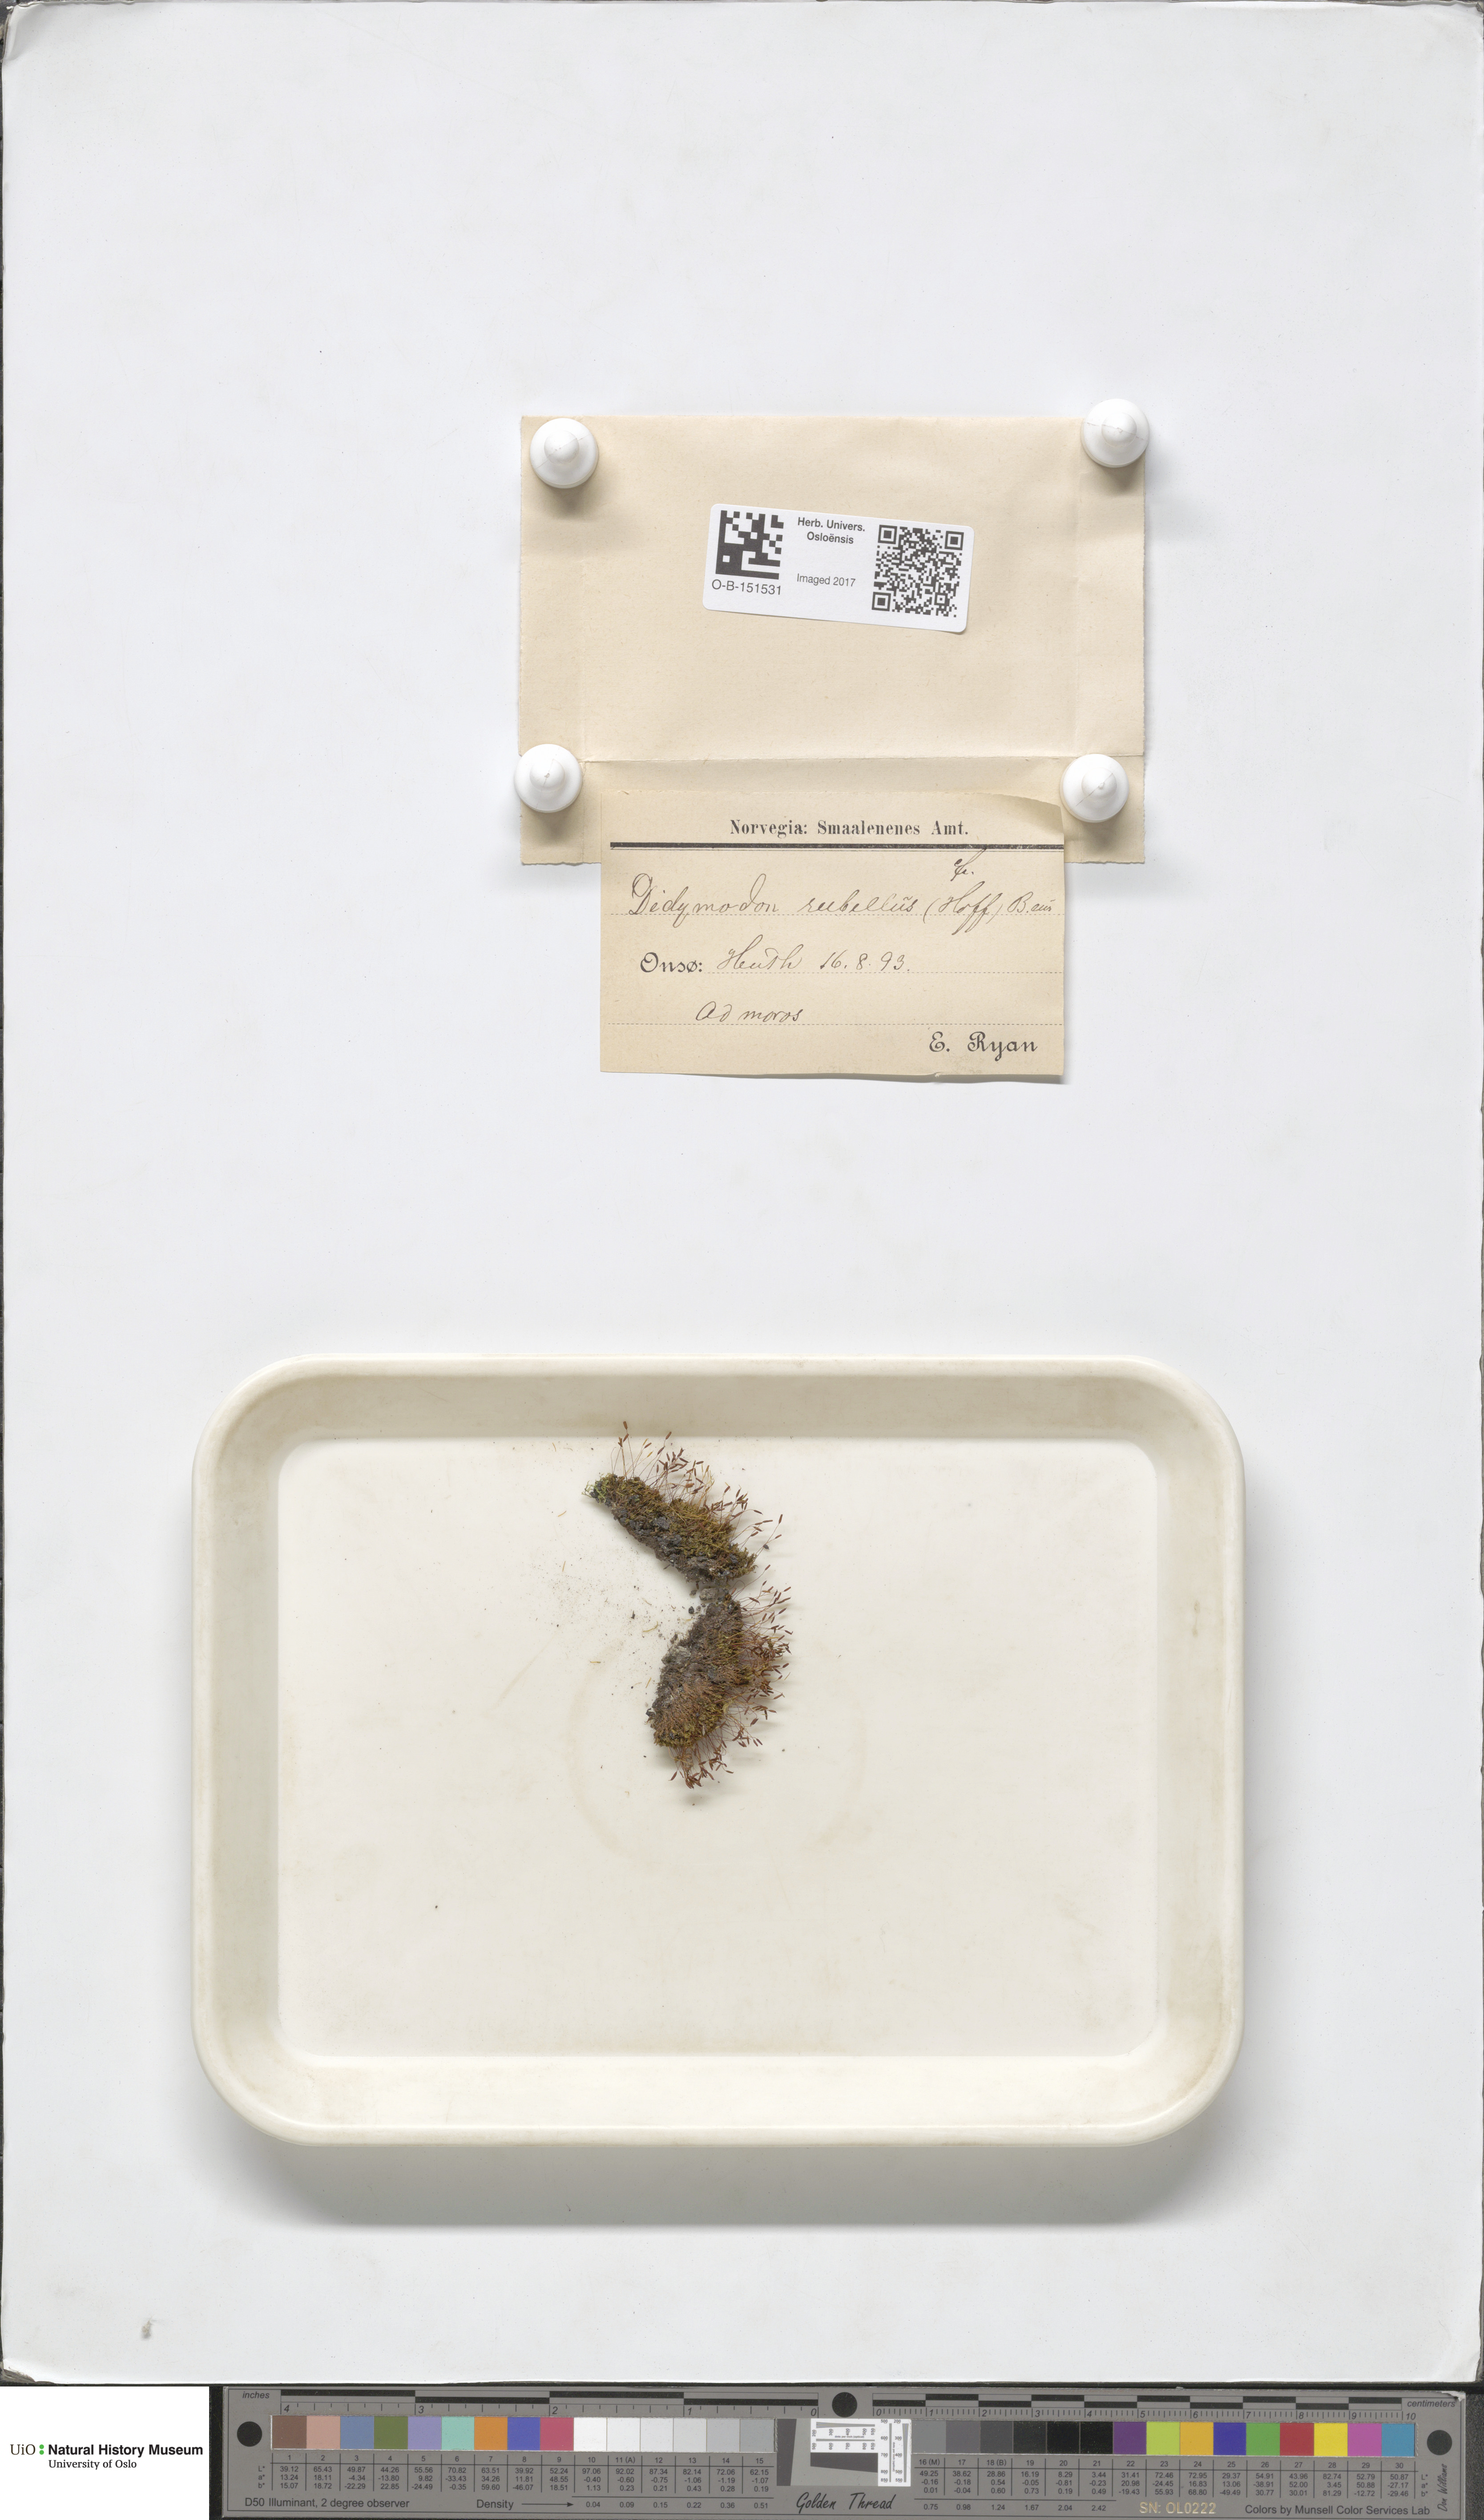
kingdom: Plantae
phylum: Bryophyta
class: Bryopsida
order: Pottiales
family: Pottiaceae
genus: Bryoerythrophyllum
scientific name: Bryoerythrophyllum recurvirostrum
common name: Red beard moss
